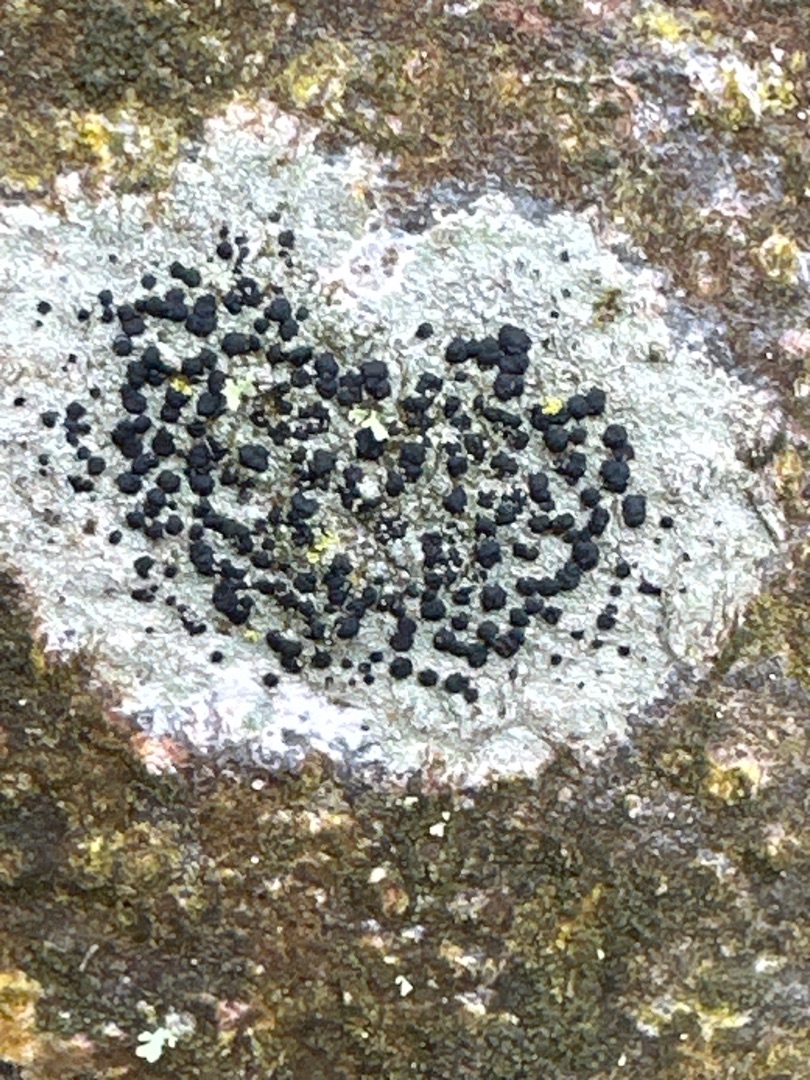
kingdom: Fungi
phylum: Ascomycota
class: Lecanoromycetes
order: Lecanorales
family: Lecanoraceae
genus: Lecidella
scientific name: Lecidella elaeochroma
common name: Grågrøn skivelav
